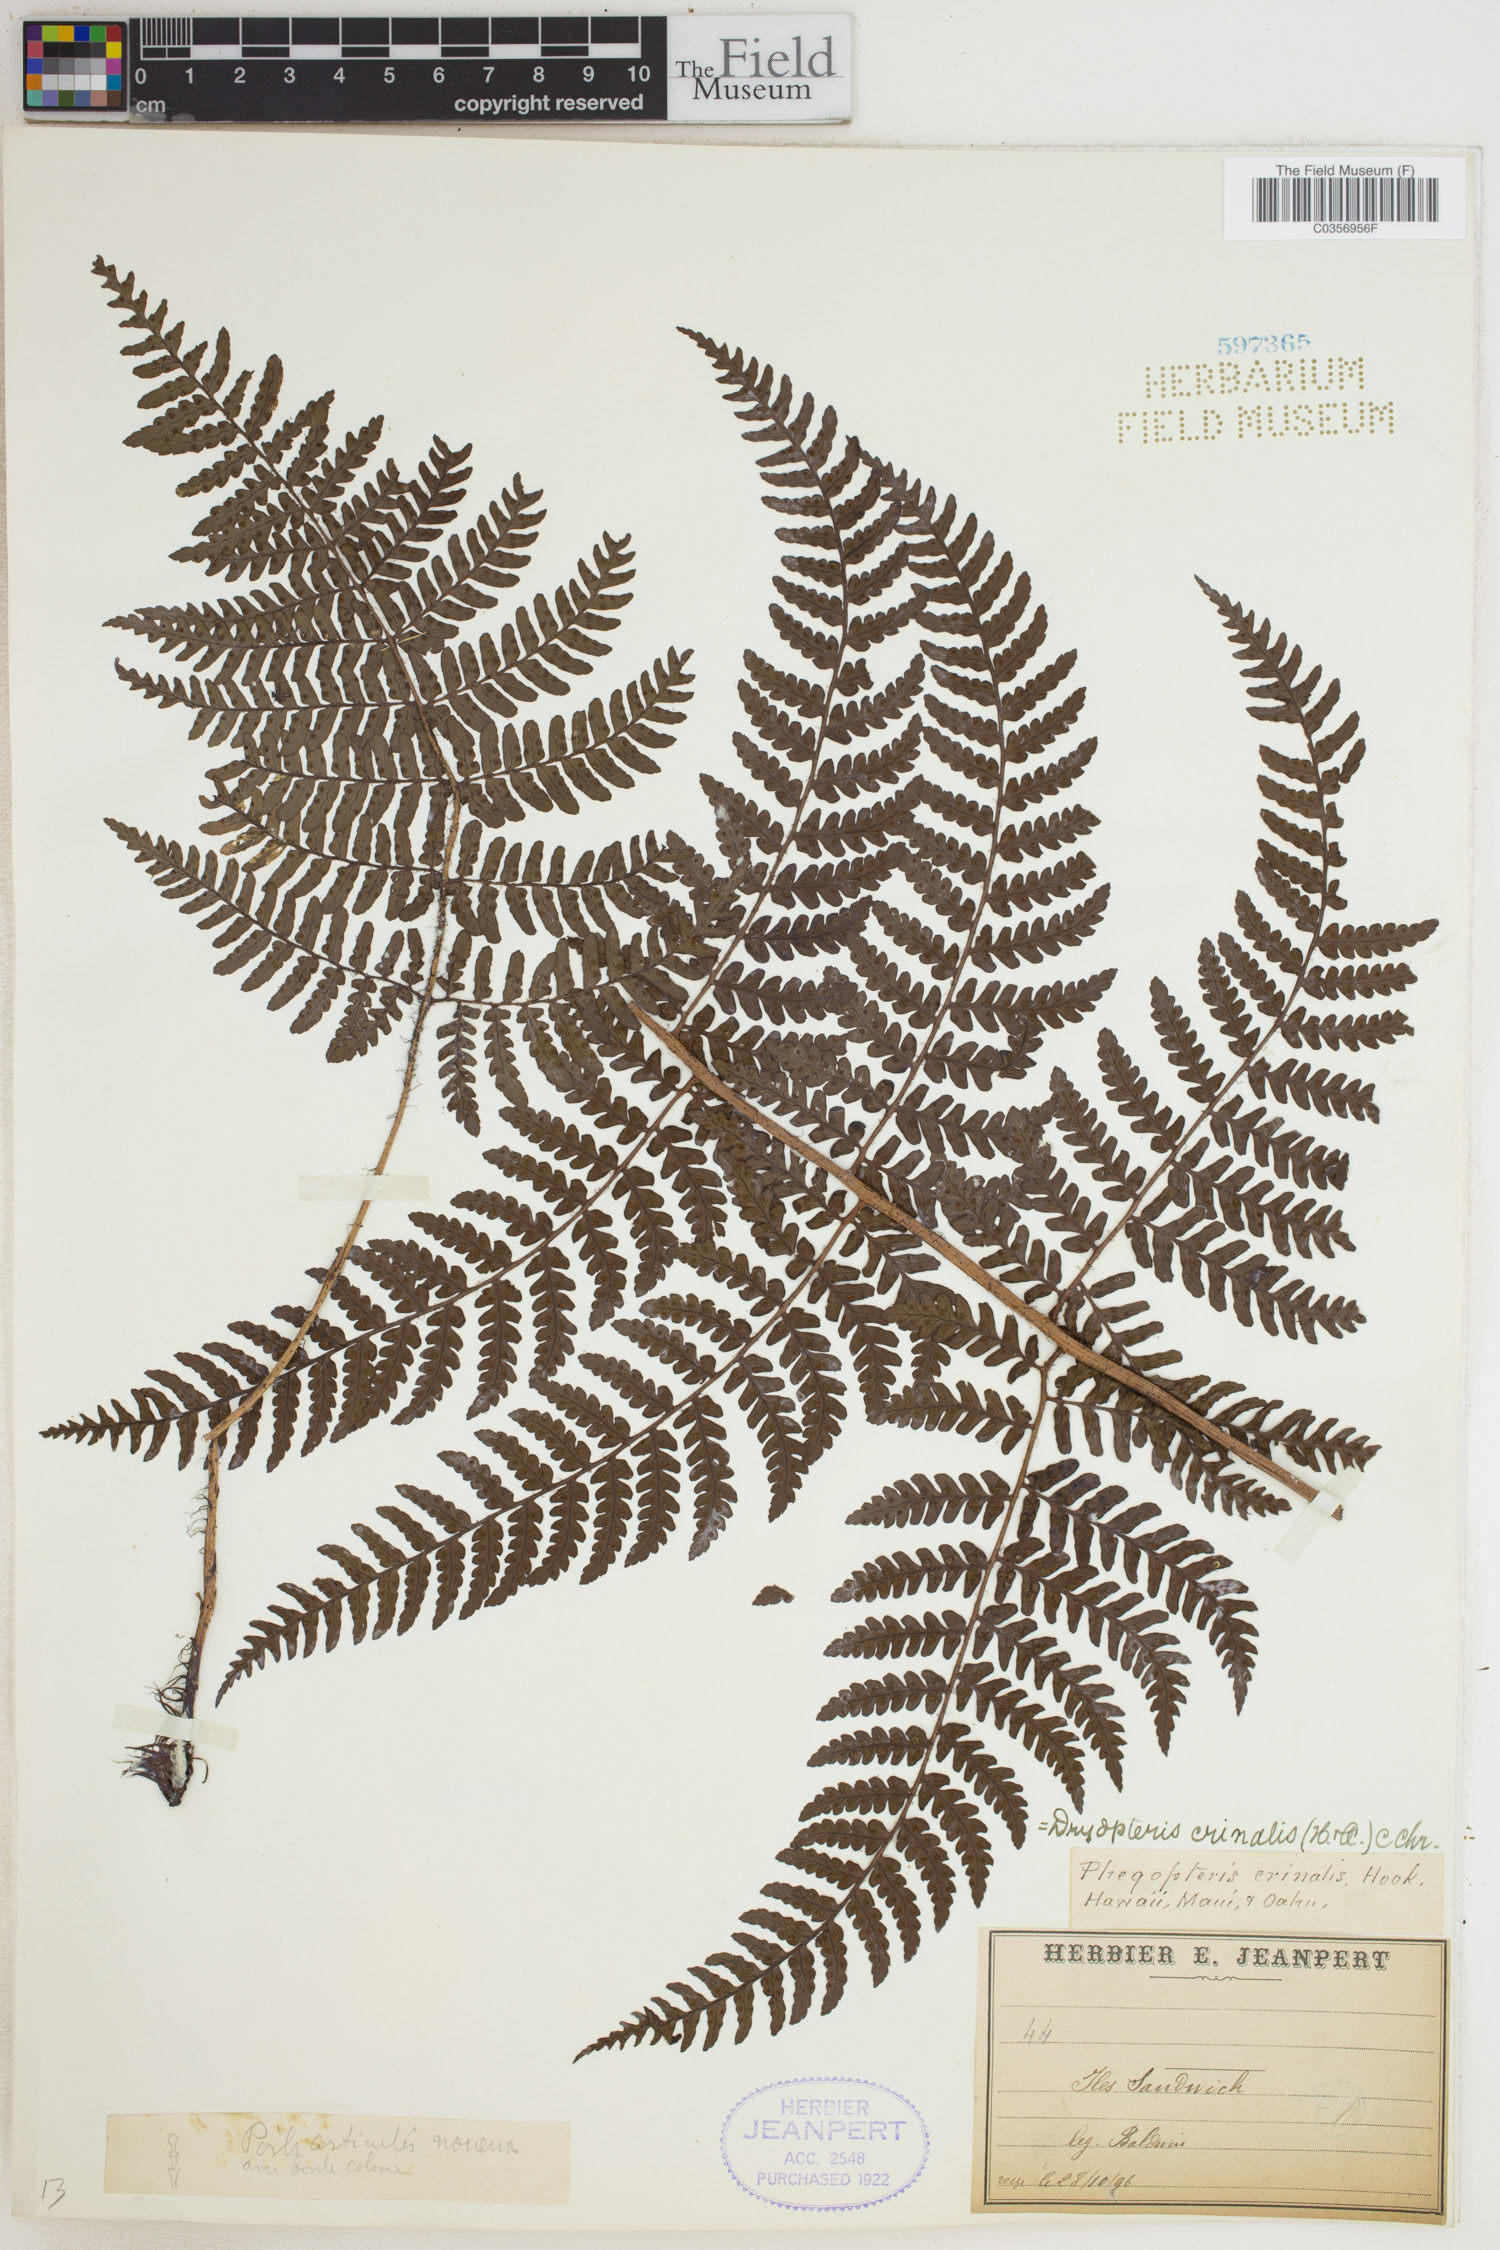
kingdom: Plantae
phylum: Tracheophyta
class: Polypodiopsida
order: Polypodiales
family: Dryopteridaceae
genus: Dryopteris
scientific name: Dryopteris crinalis
